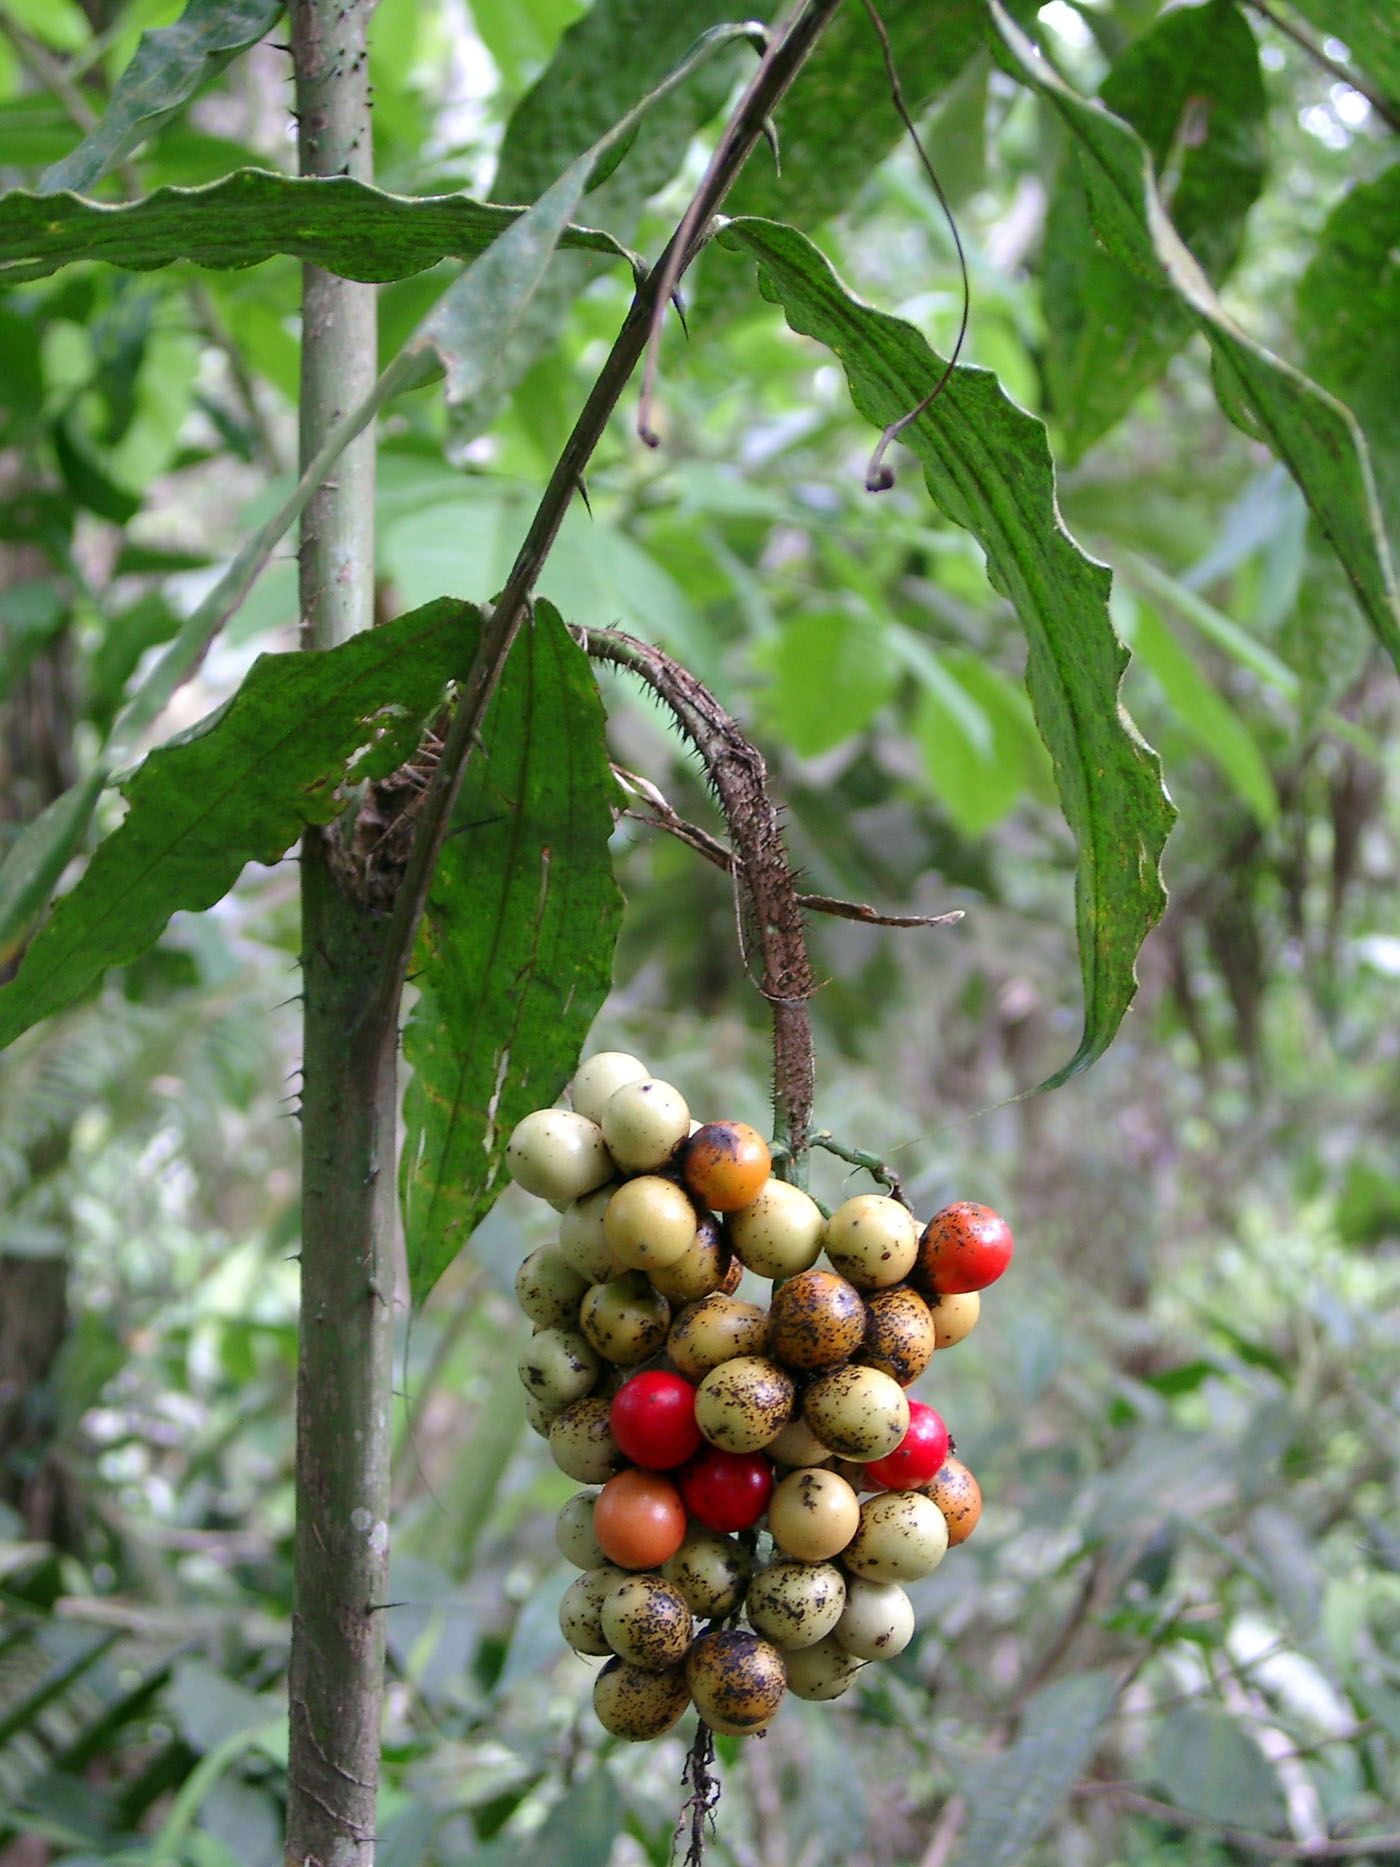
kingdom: Plantae
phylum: Tracheophyta
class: Liliopsida
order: Arecales
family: Arecaceae
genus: Desmoncus
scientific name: Desmoncus cirrhiferus
